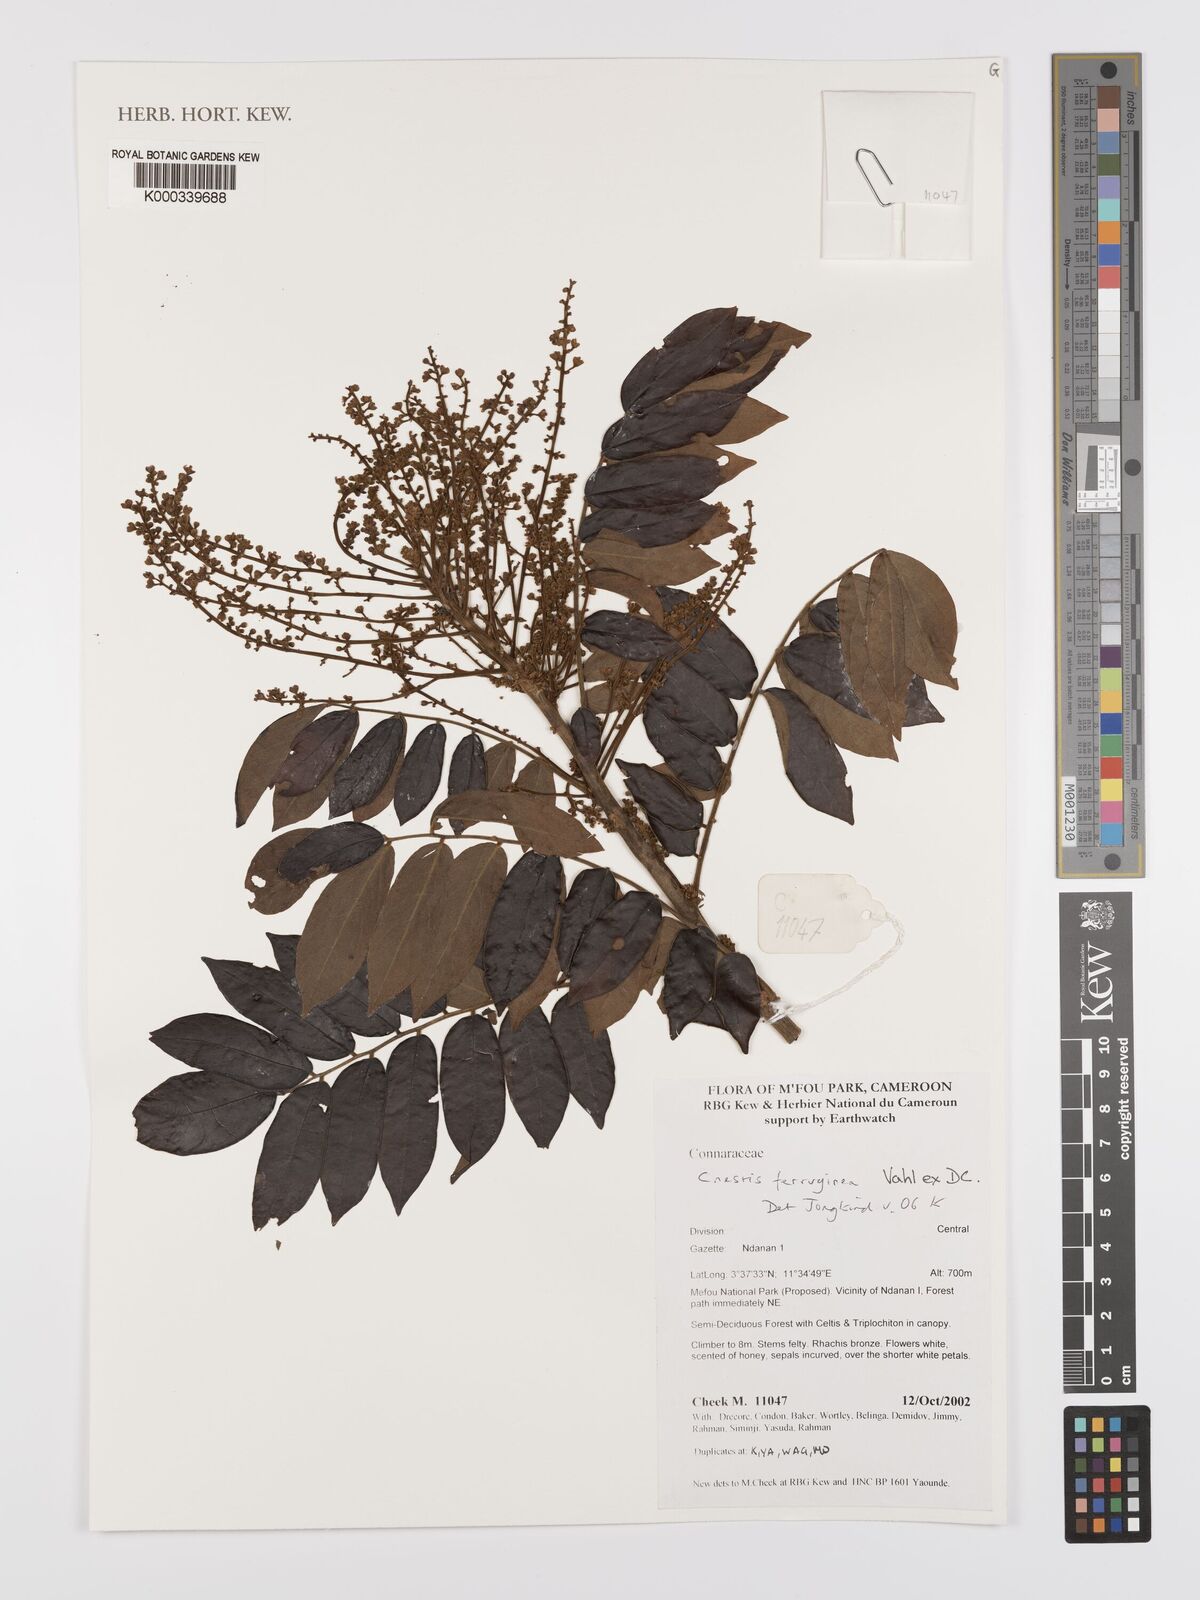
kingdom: Plantae
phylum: Tracheophyta
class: Magnoliopsida
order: Oxalidales
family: Connaraceae
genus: Cnestis
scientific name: Cnestis ferruginea
